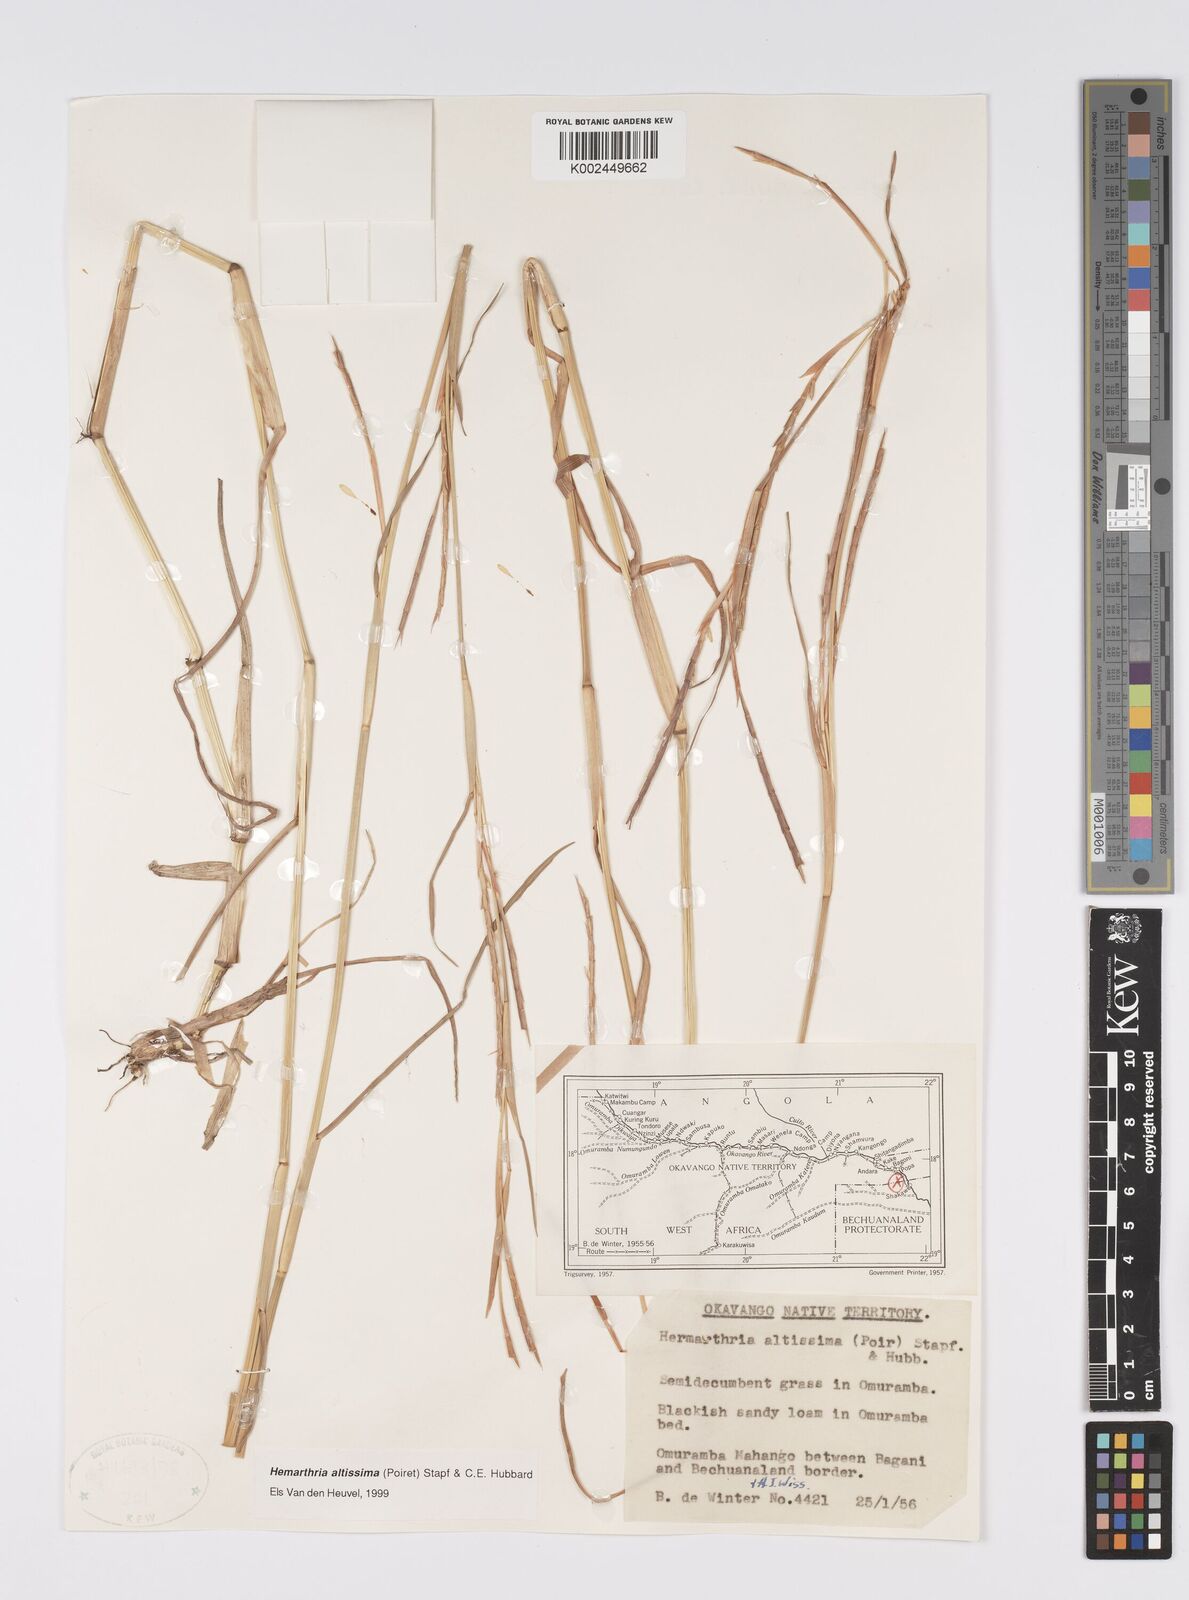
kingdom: Plantae
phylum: Tracheophyta
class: Liliopsida
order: Poales
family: Poaceae
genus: Hemarthria
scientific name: Hemarthria altissima
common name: African jointgrass
